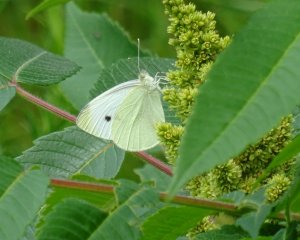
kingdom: Animalia
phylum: Arthropoda
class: Insecta
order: Lepidoptera
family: Pieridae
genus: Pieris
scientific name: Pieris rapae
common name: Cabbage White
